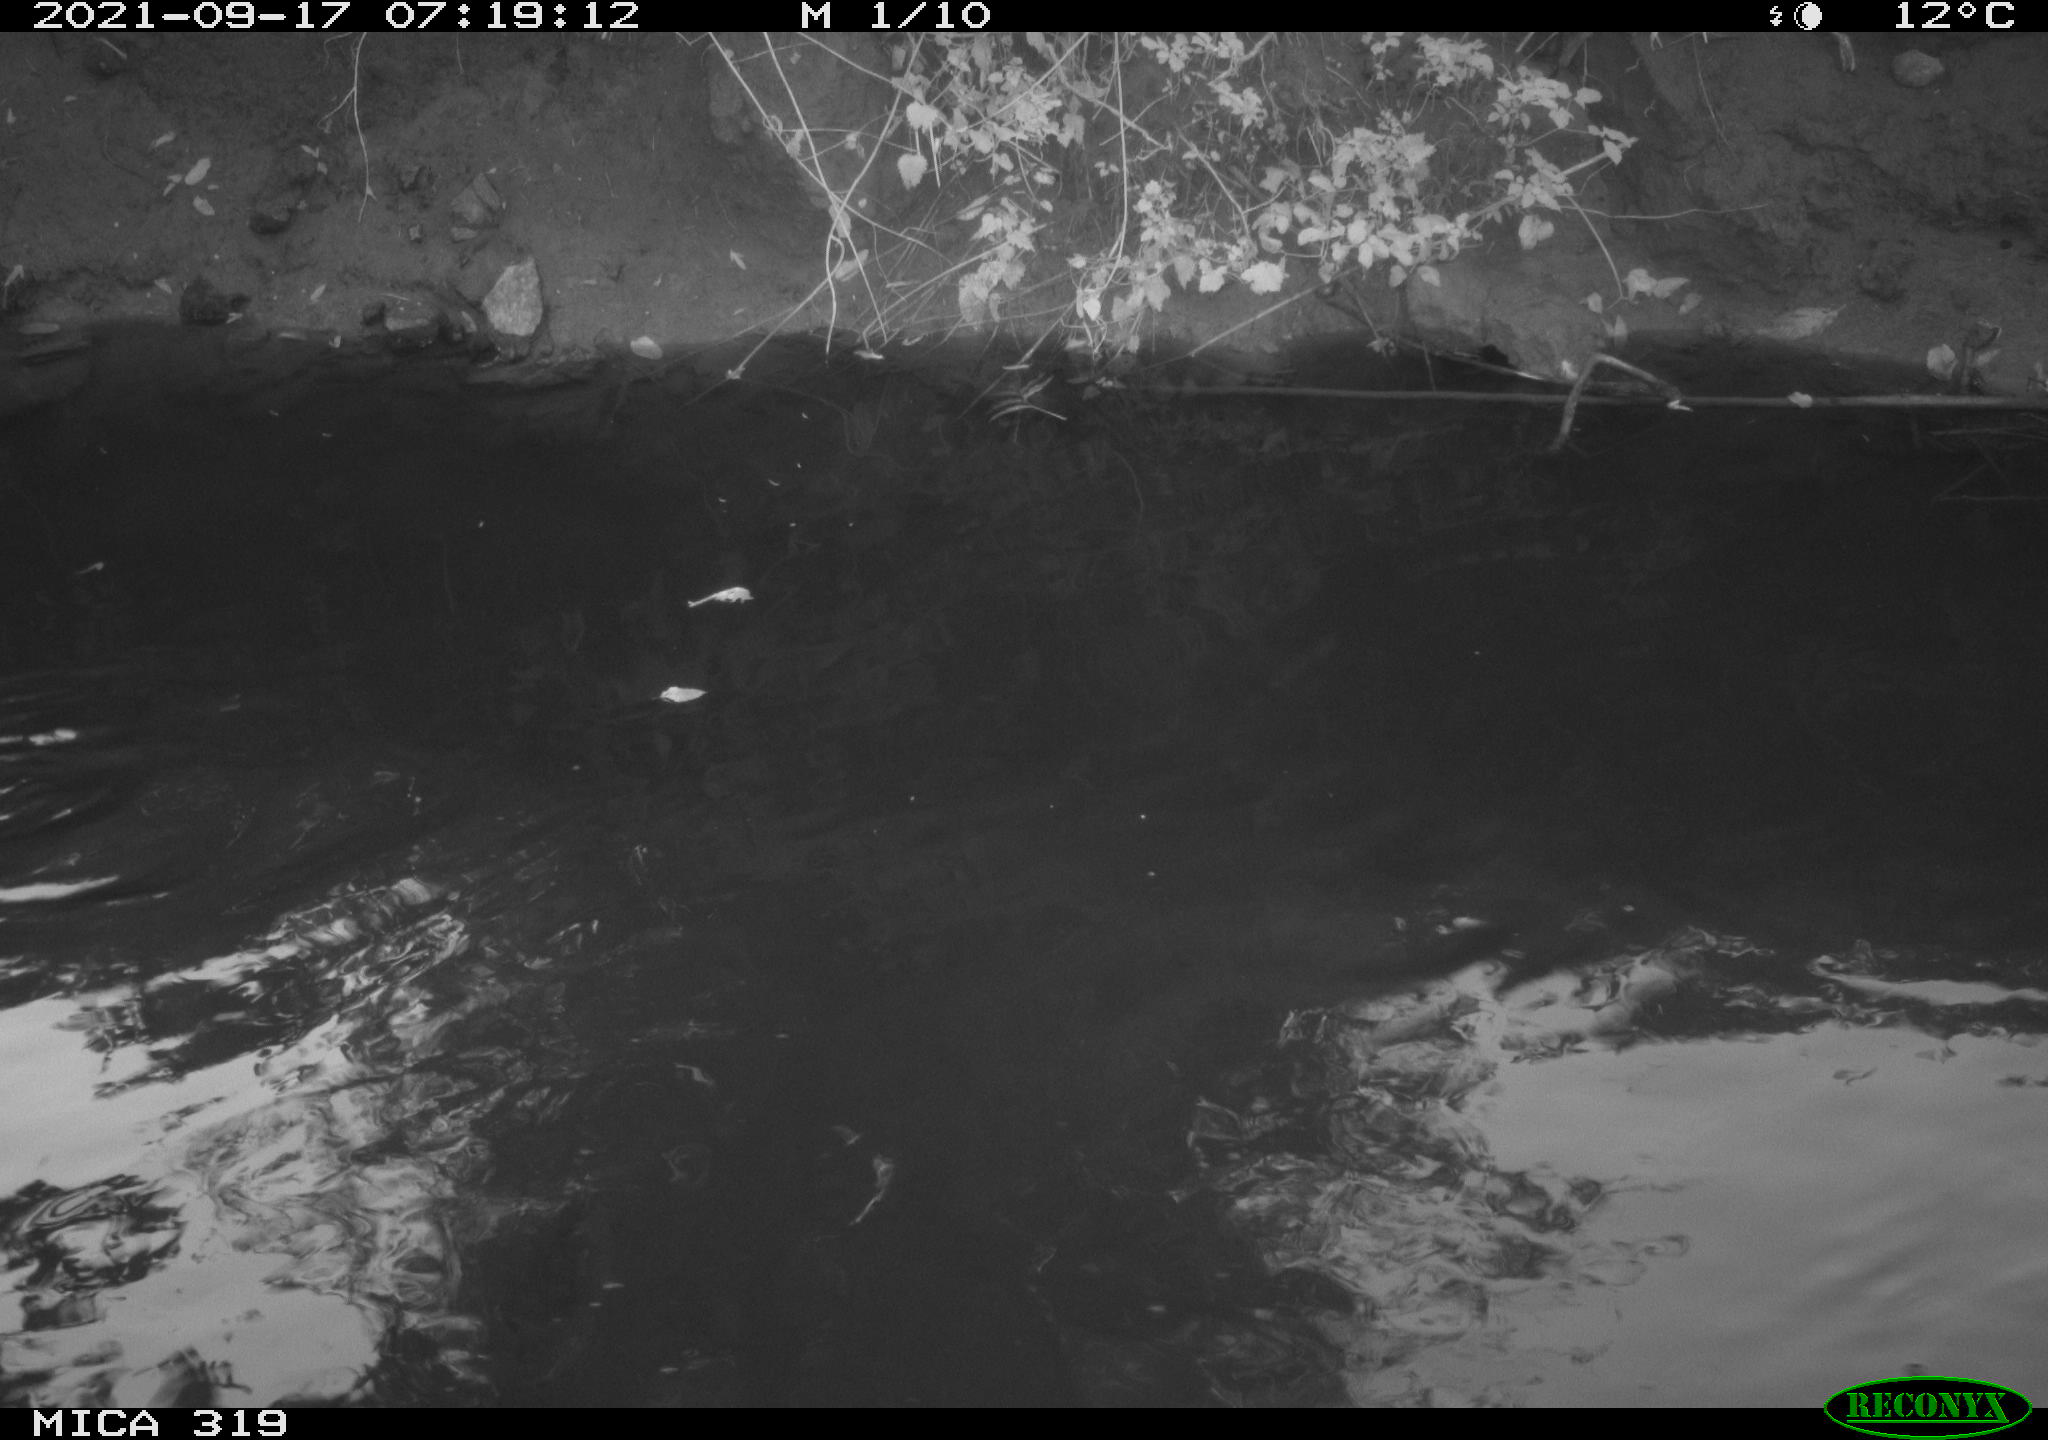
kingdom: Animalia
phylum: Chordata
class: Aves
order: Anseriformes
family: Anatidae
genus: Anas
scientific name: Anas platyrhynchos
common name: Mallard
